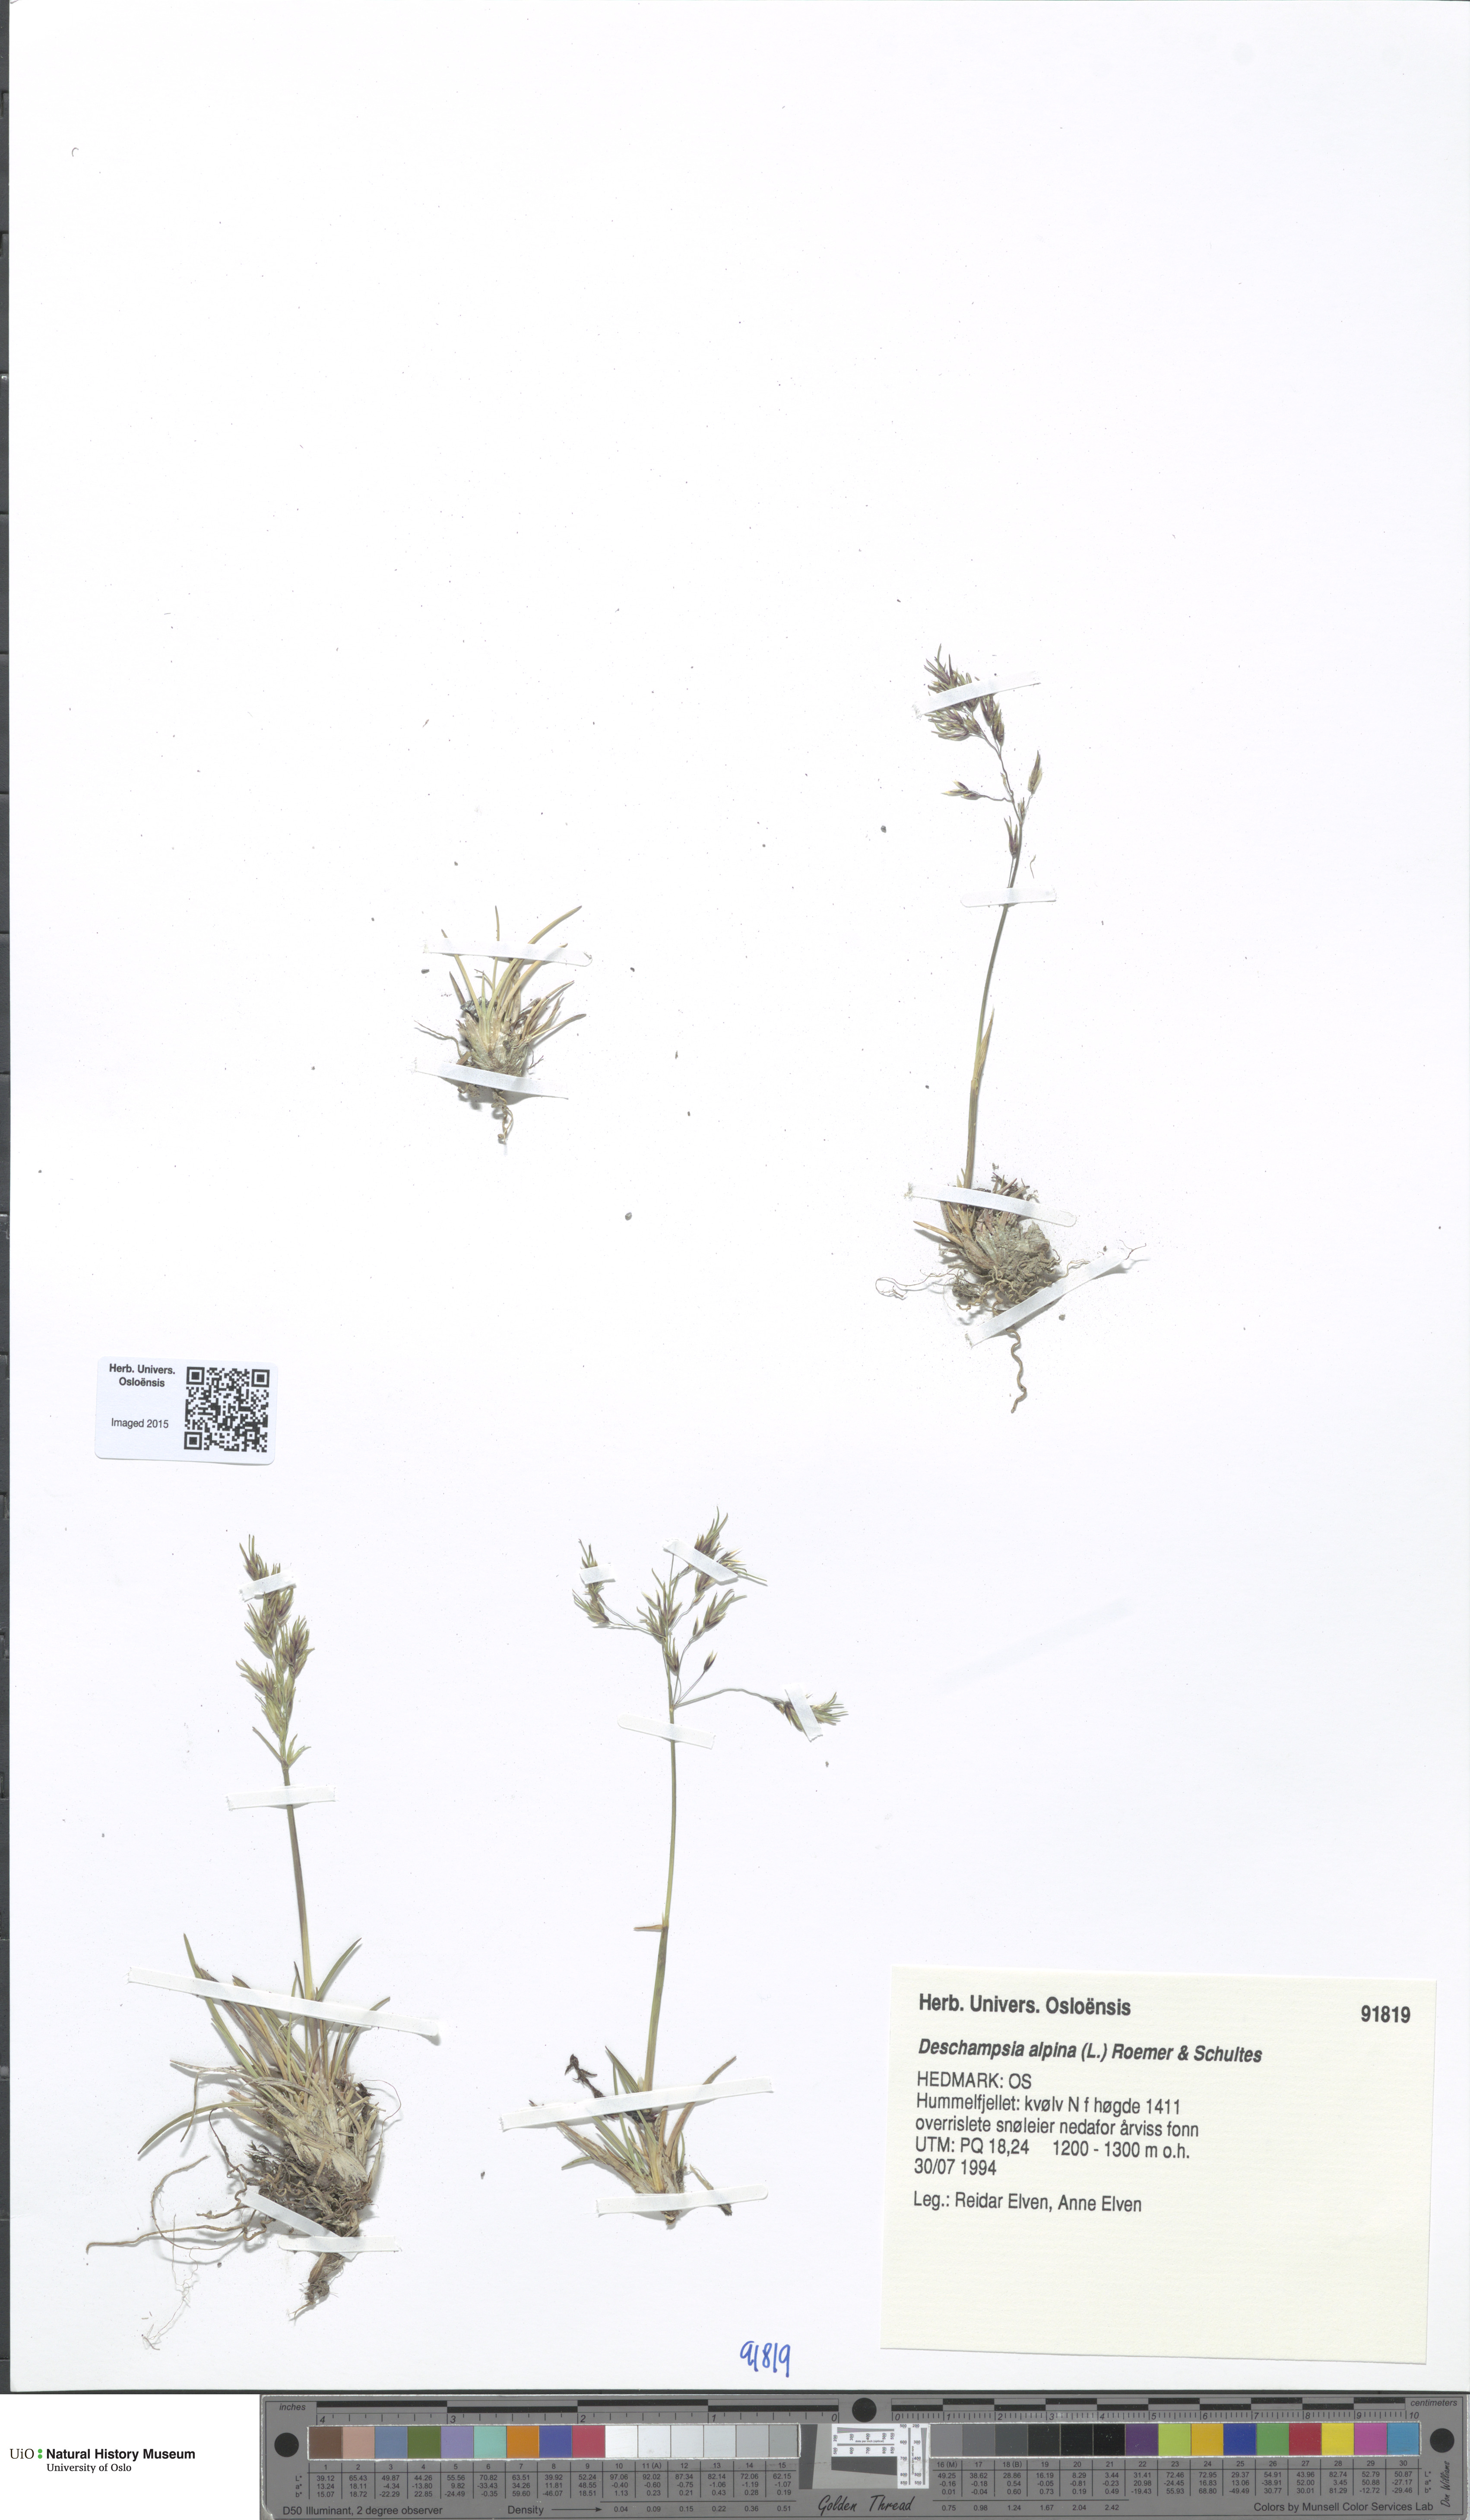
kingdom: Plantae
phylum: Tracheophyta
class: Liliopsida
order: Poales
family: Poaceae
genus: Deschampsia
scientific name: Deschampsia cespitosa
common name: Tufted hair-grass
